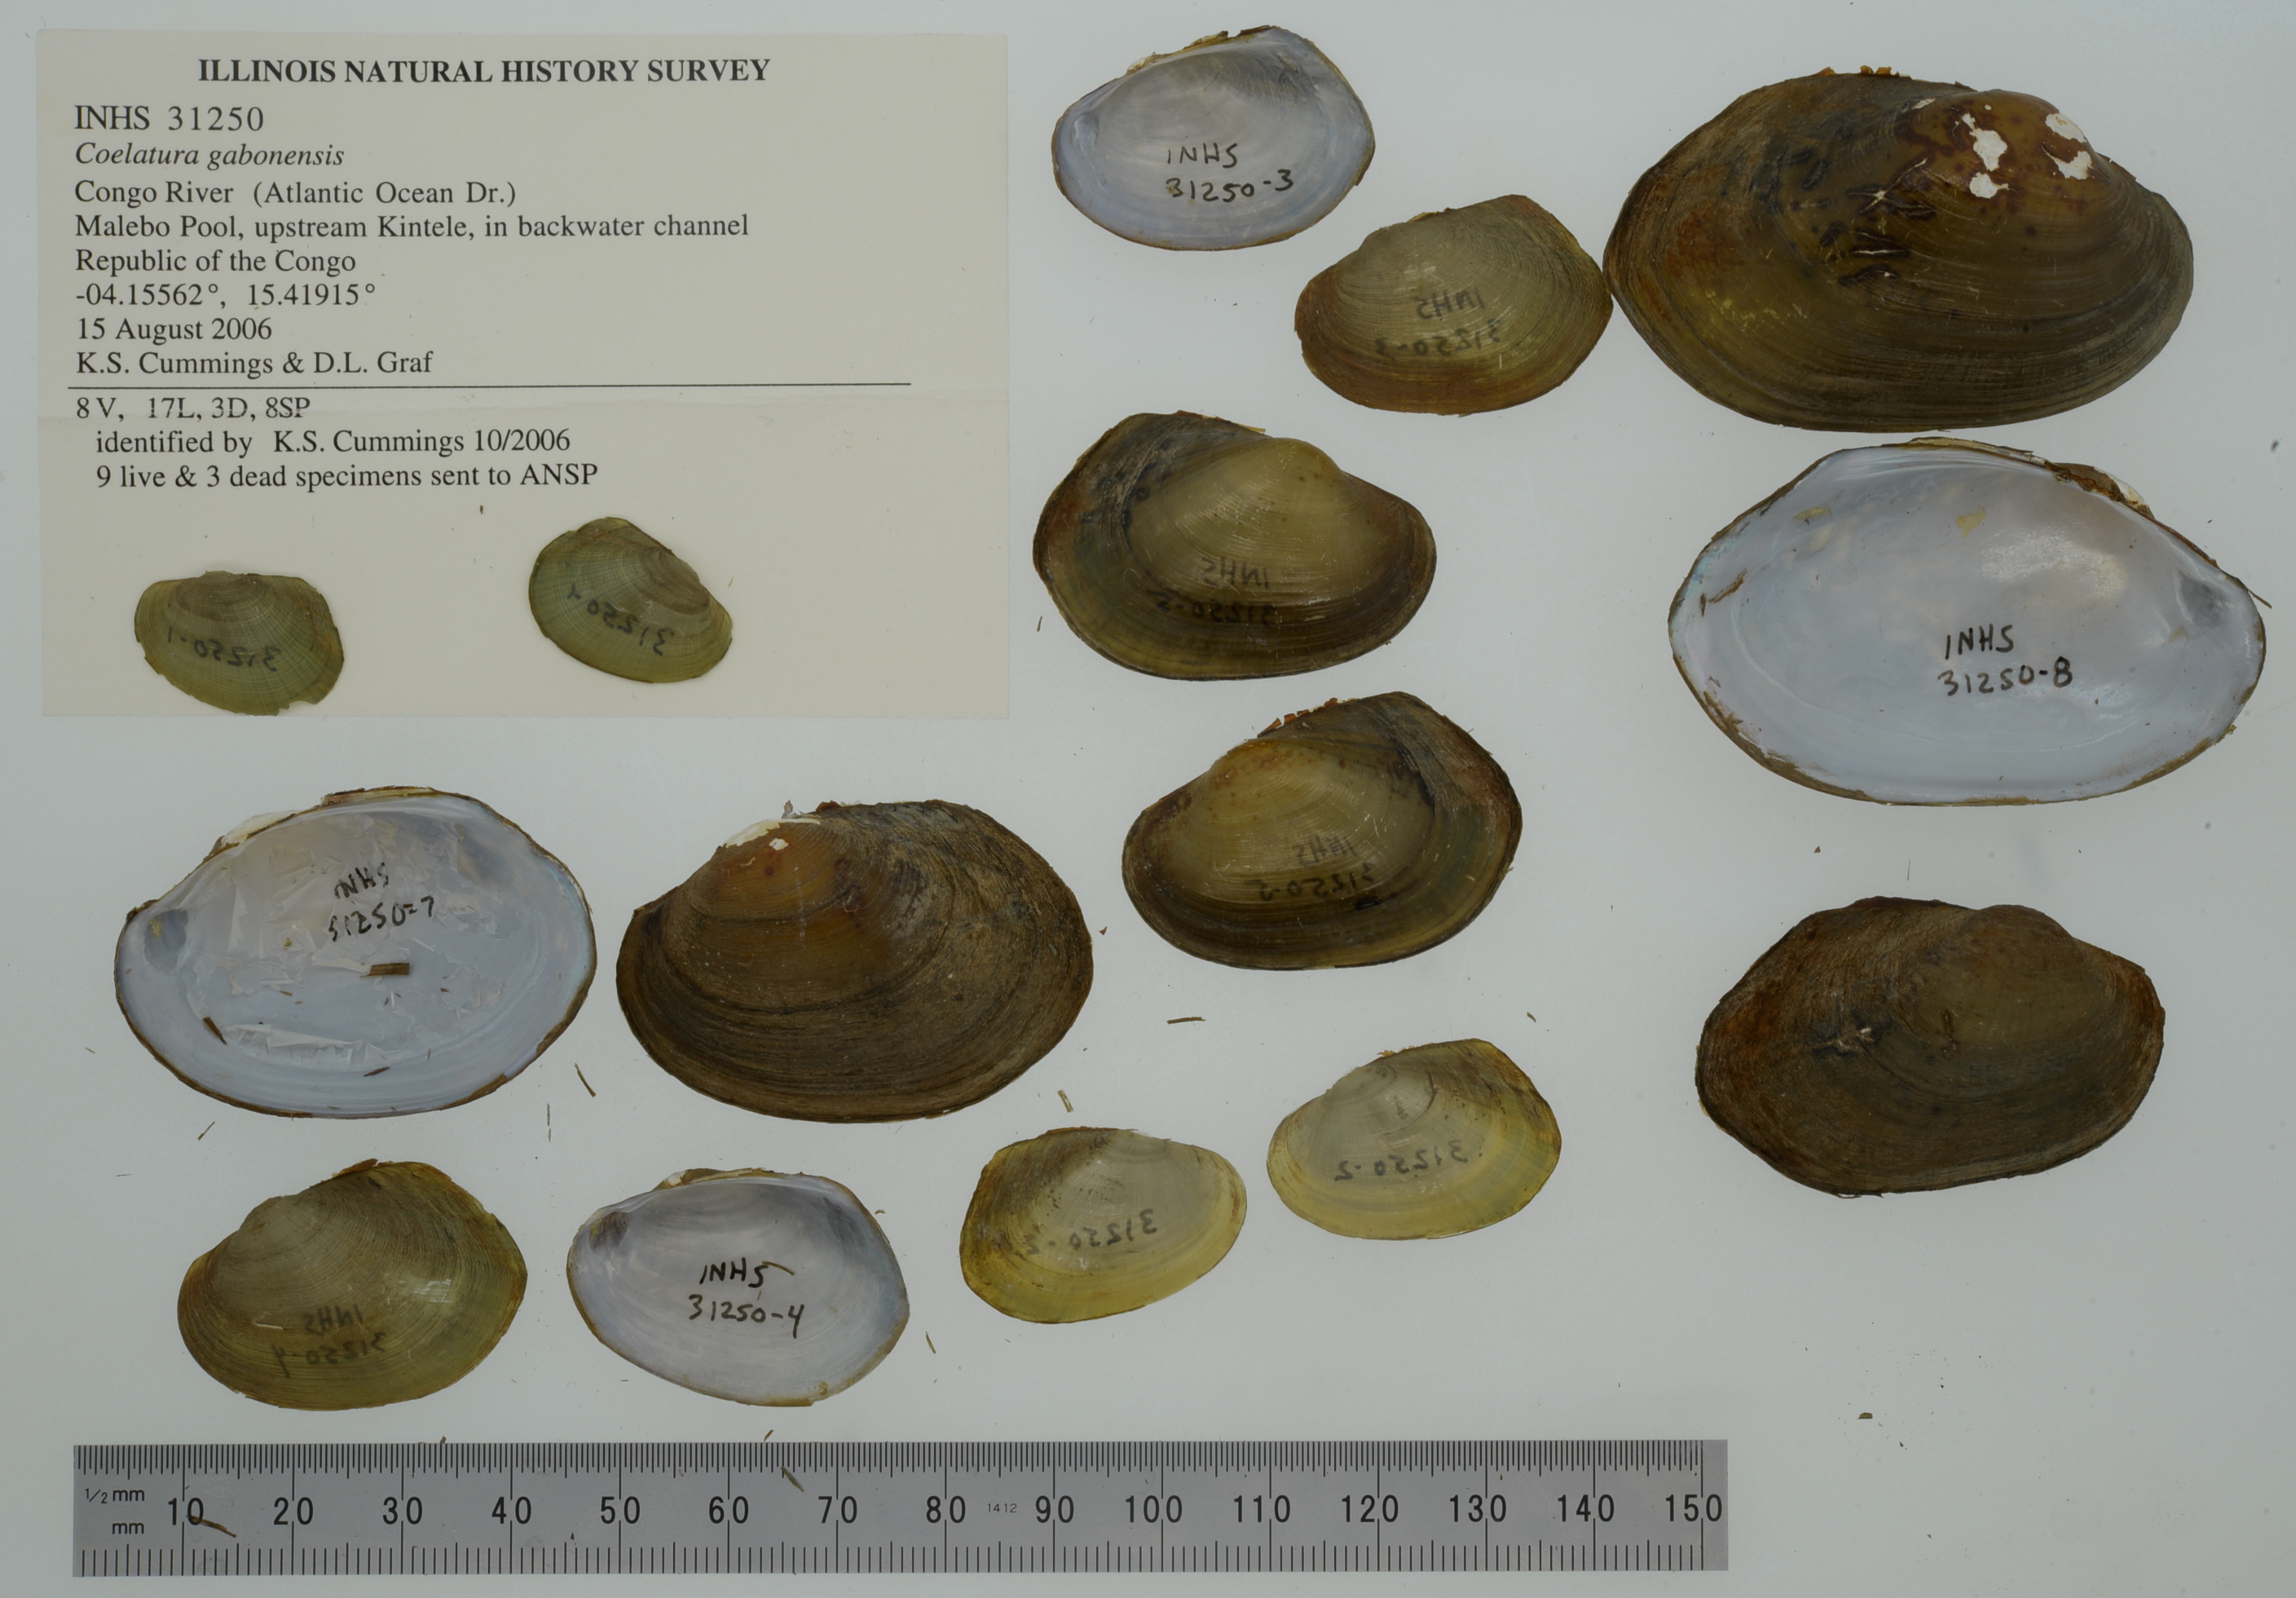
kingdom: Animalia
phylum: Mollusca
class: Bivalvia
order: Unionida
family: Unionidae
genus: Coelatura
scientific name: Coelatura gabonensis
